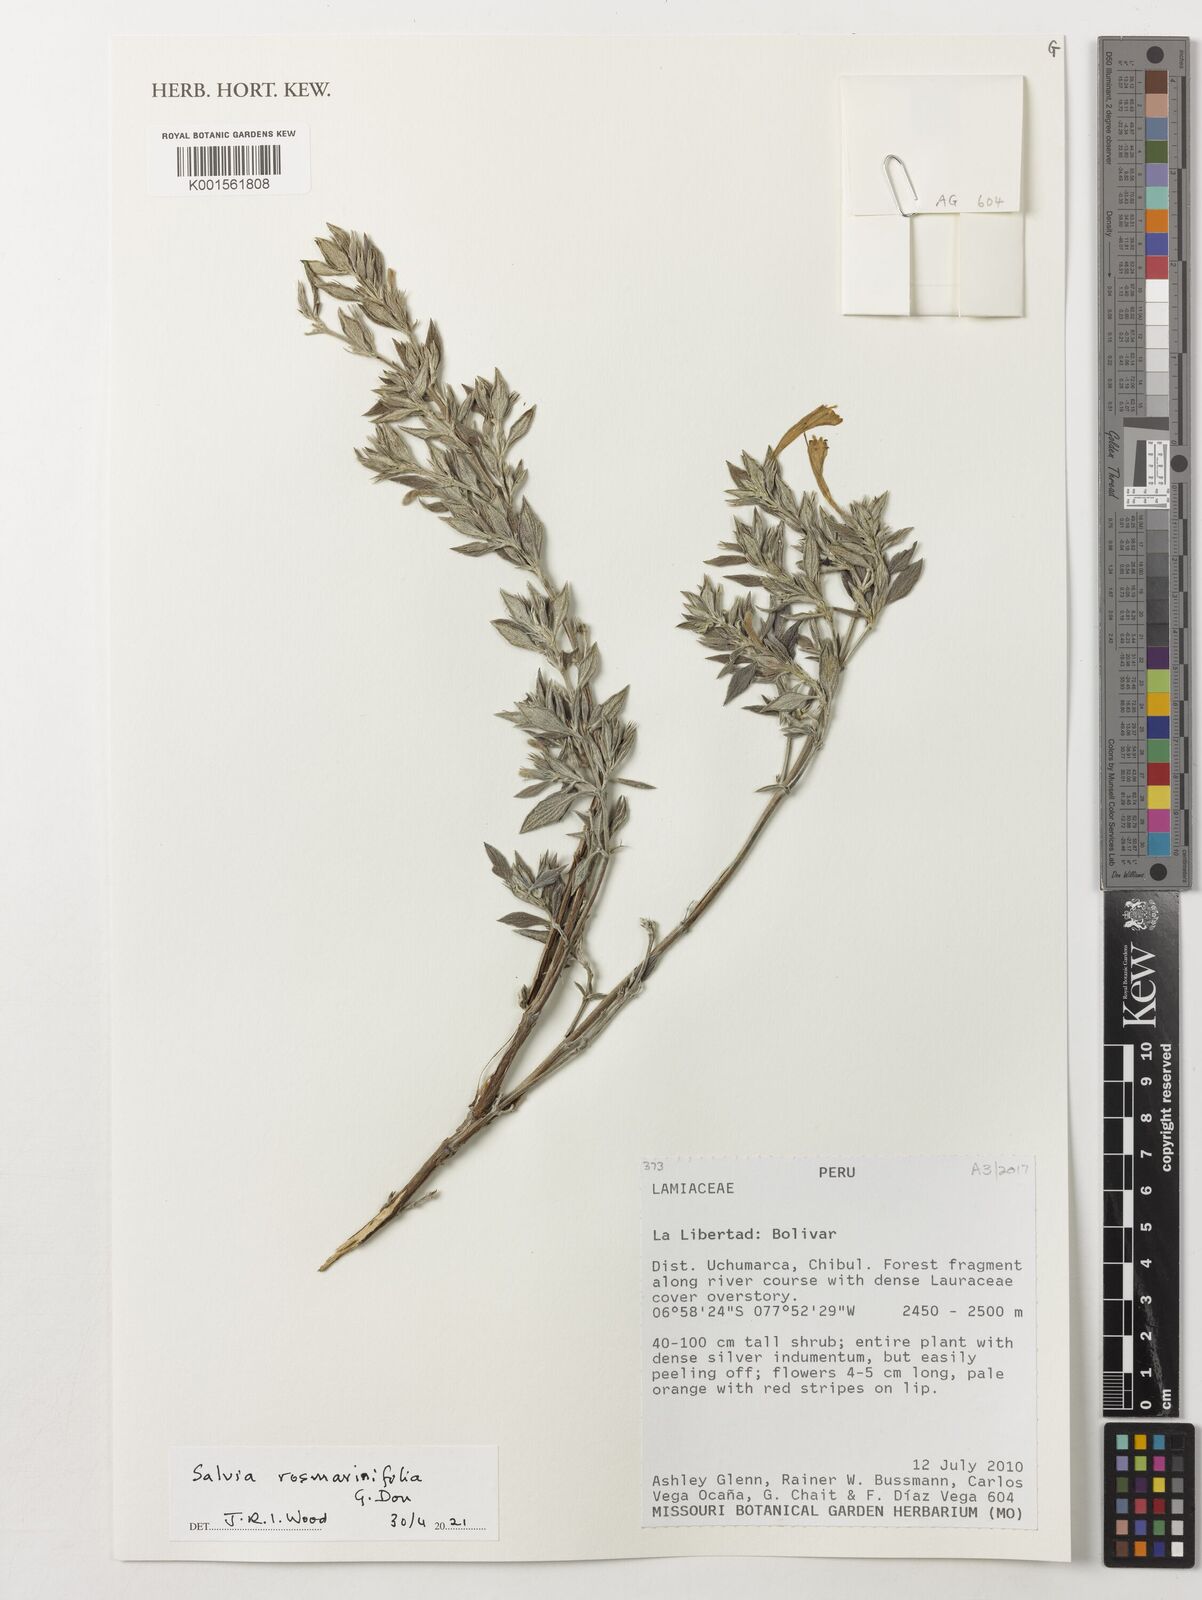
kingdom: Plantae
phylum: Tracheophyta
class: Magnoliopsida
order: Lamiales
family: Lamiaceae
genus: Salvia
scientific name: Salvia officinalis
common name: Sage
